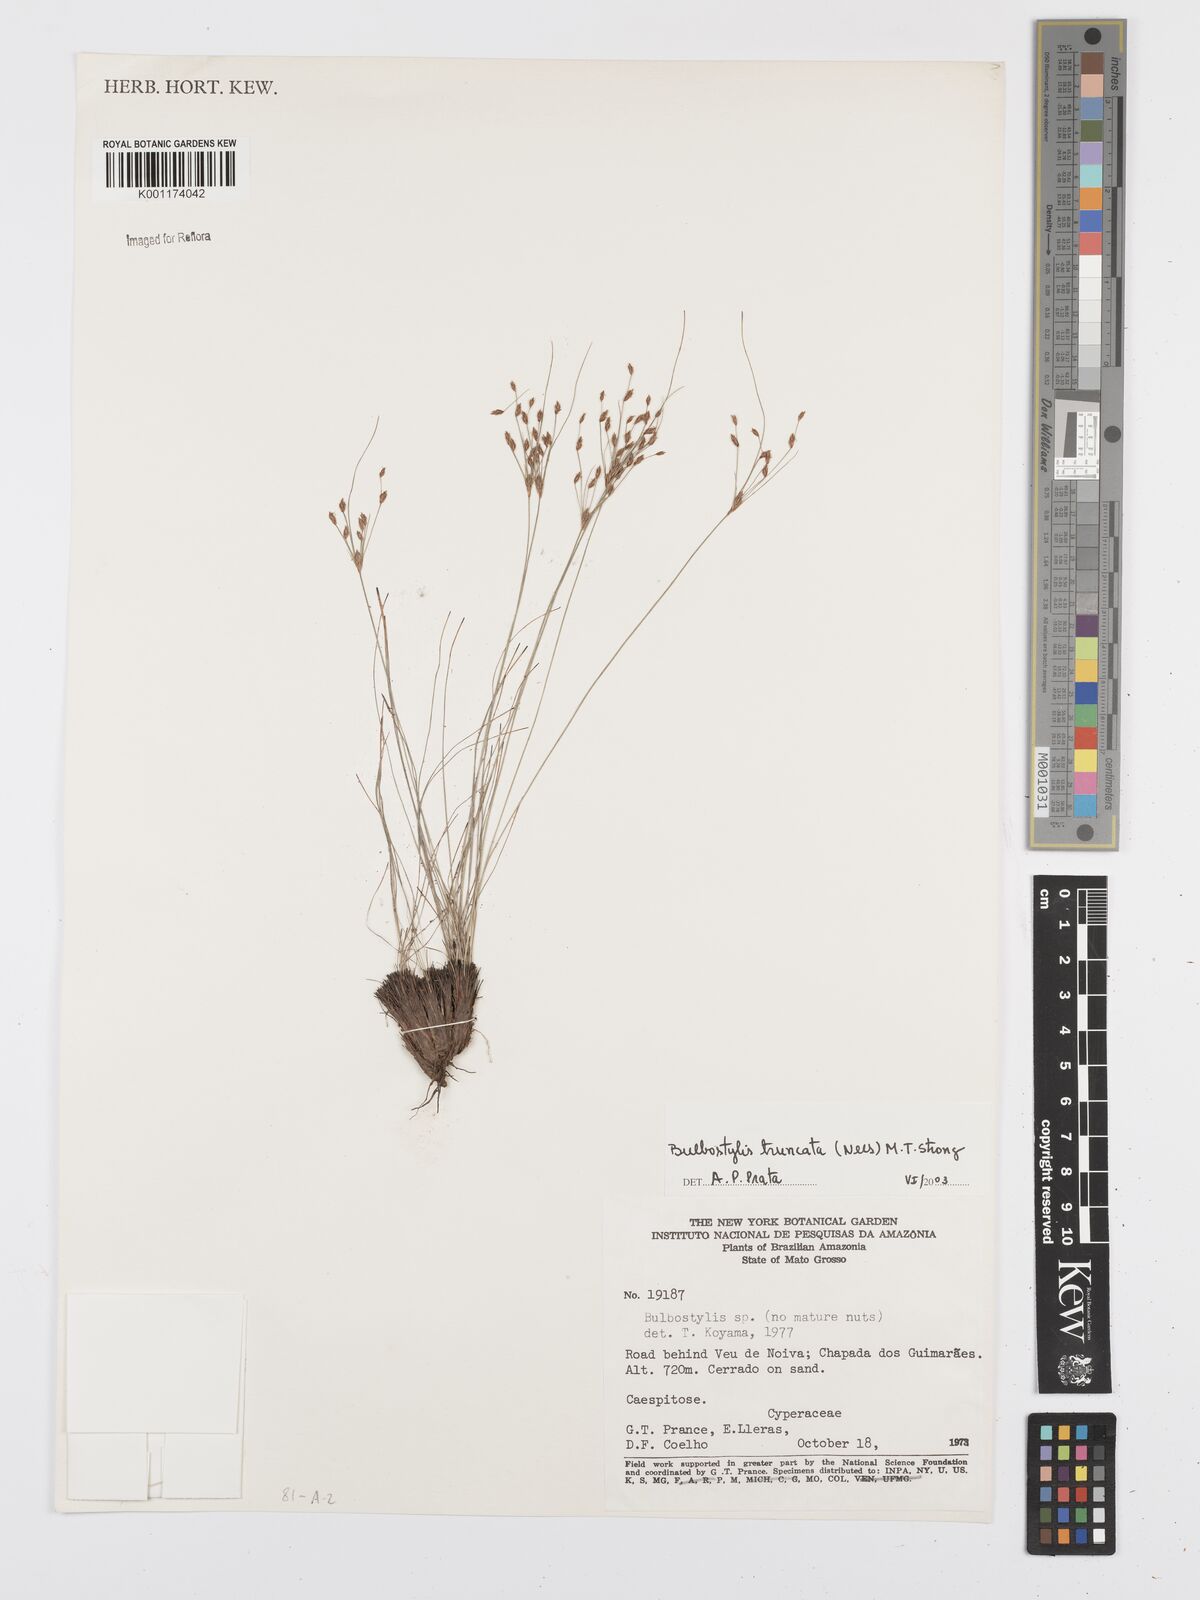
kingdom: Plantae
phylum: Tracheophyta
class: Liliopsida
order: Poales
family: Cyperaceae
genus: Bulbostylis
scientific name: Bulbostylis truncata
